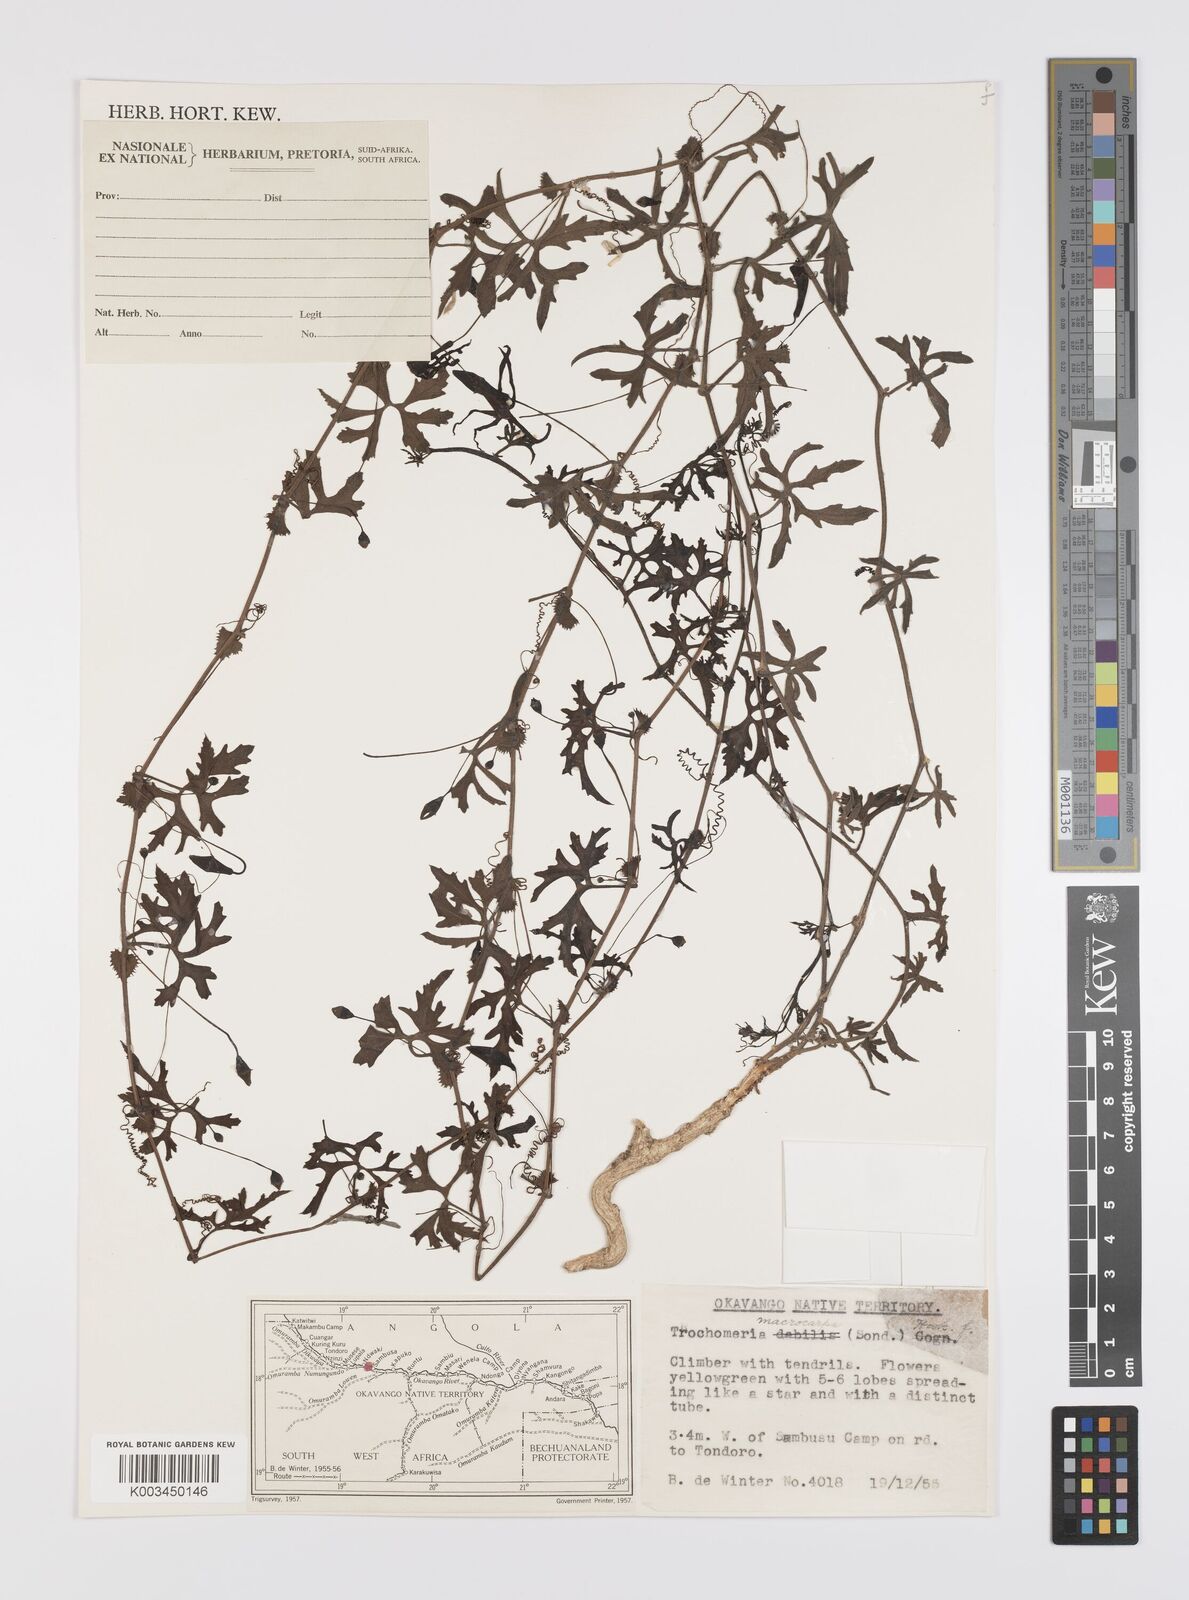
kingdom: Plantae
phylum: Tracheophyta
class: Magnoliopsida
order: Cucurbitales
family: Cucurbitaceae
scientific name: Cucurbitaceae
